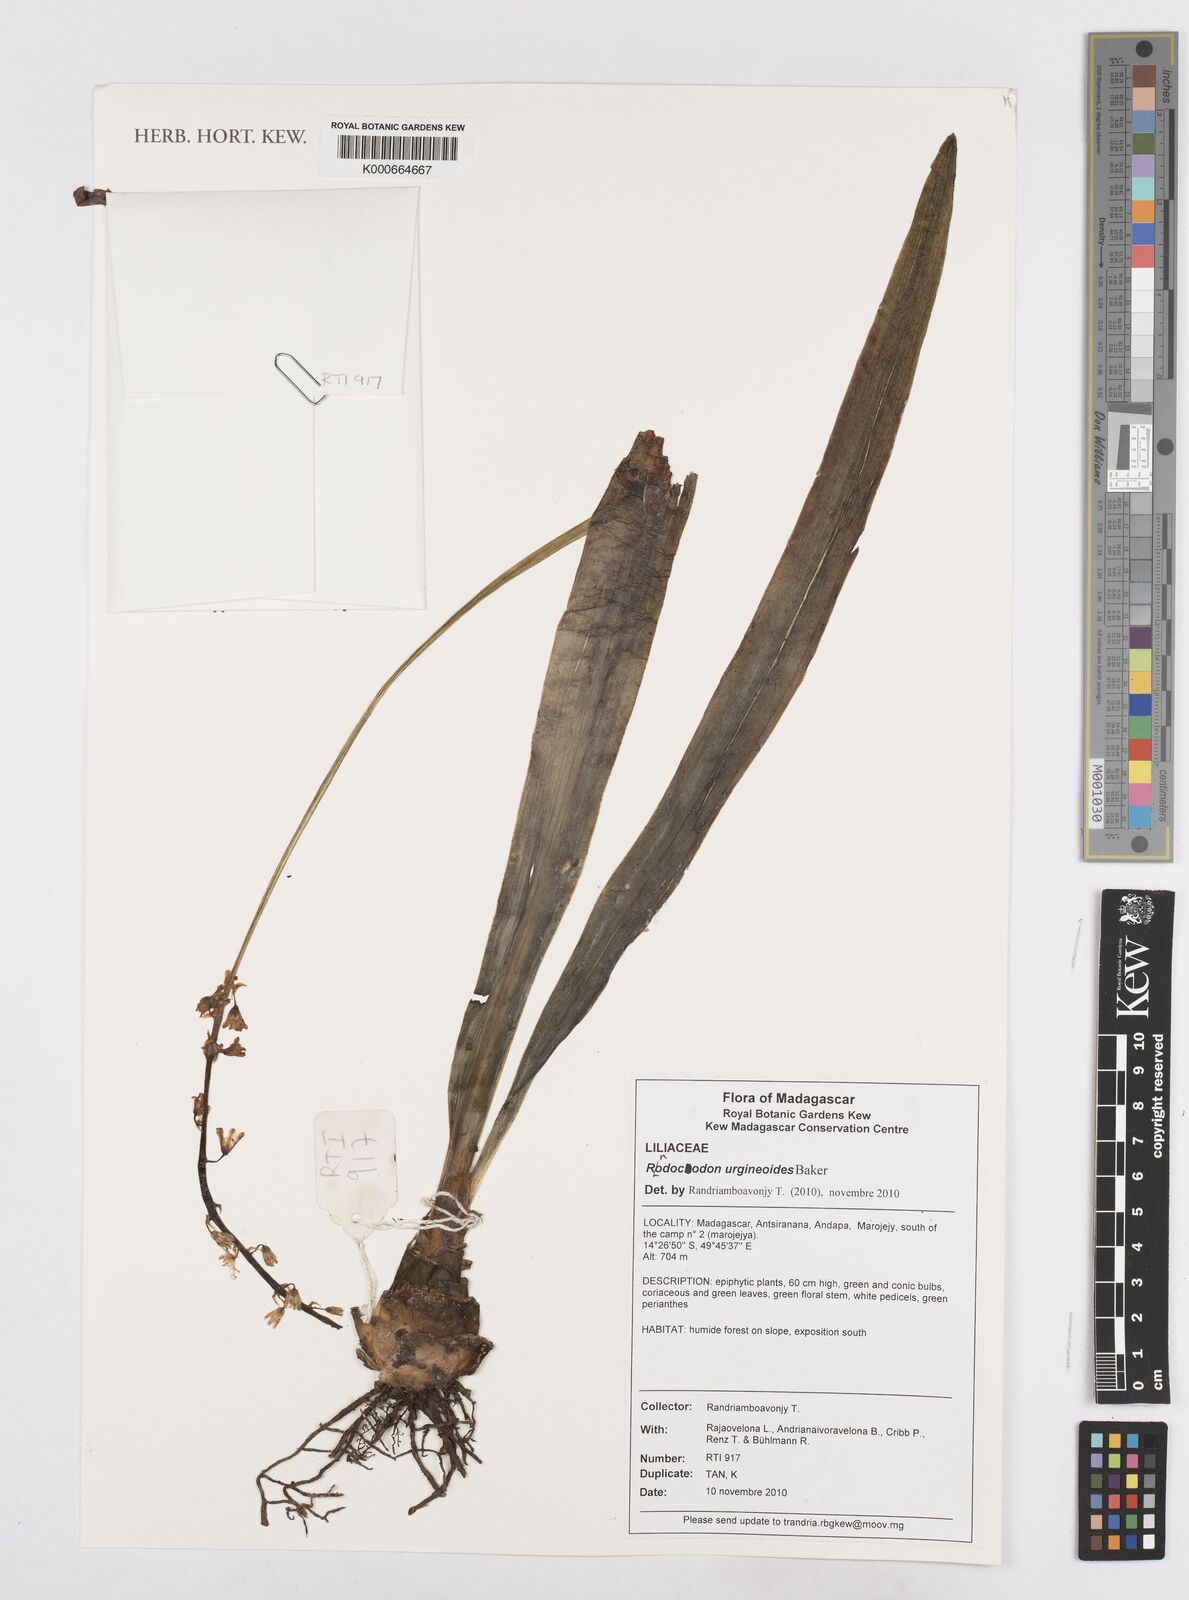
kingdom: Plantae
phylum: Tracheophyta
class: Liliopsida
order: Asparagales
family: Asparagaceae
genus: Drimia
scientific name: Drimia urgineoides
